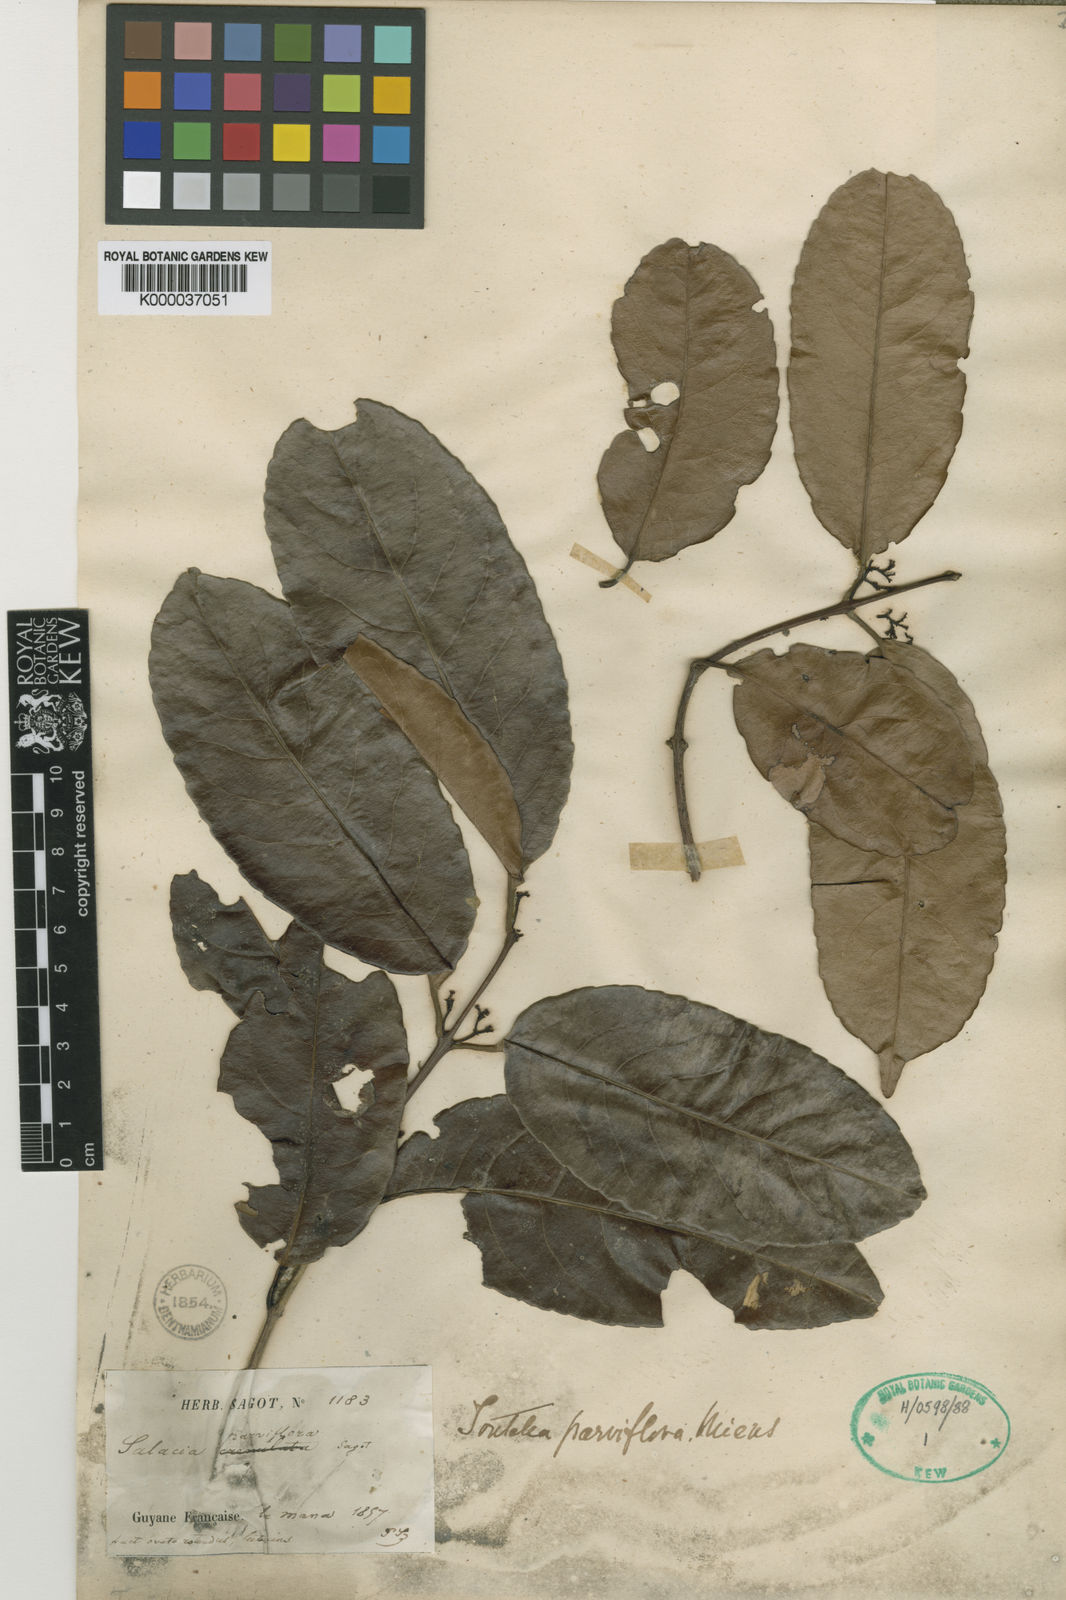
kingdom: Plantae
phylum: Tracheophyta
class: Magnoliopsida
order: Celastrales
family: Celastraceae
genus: Cheiloclinium
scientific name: Cheiloclinium serratum
